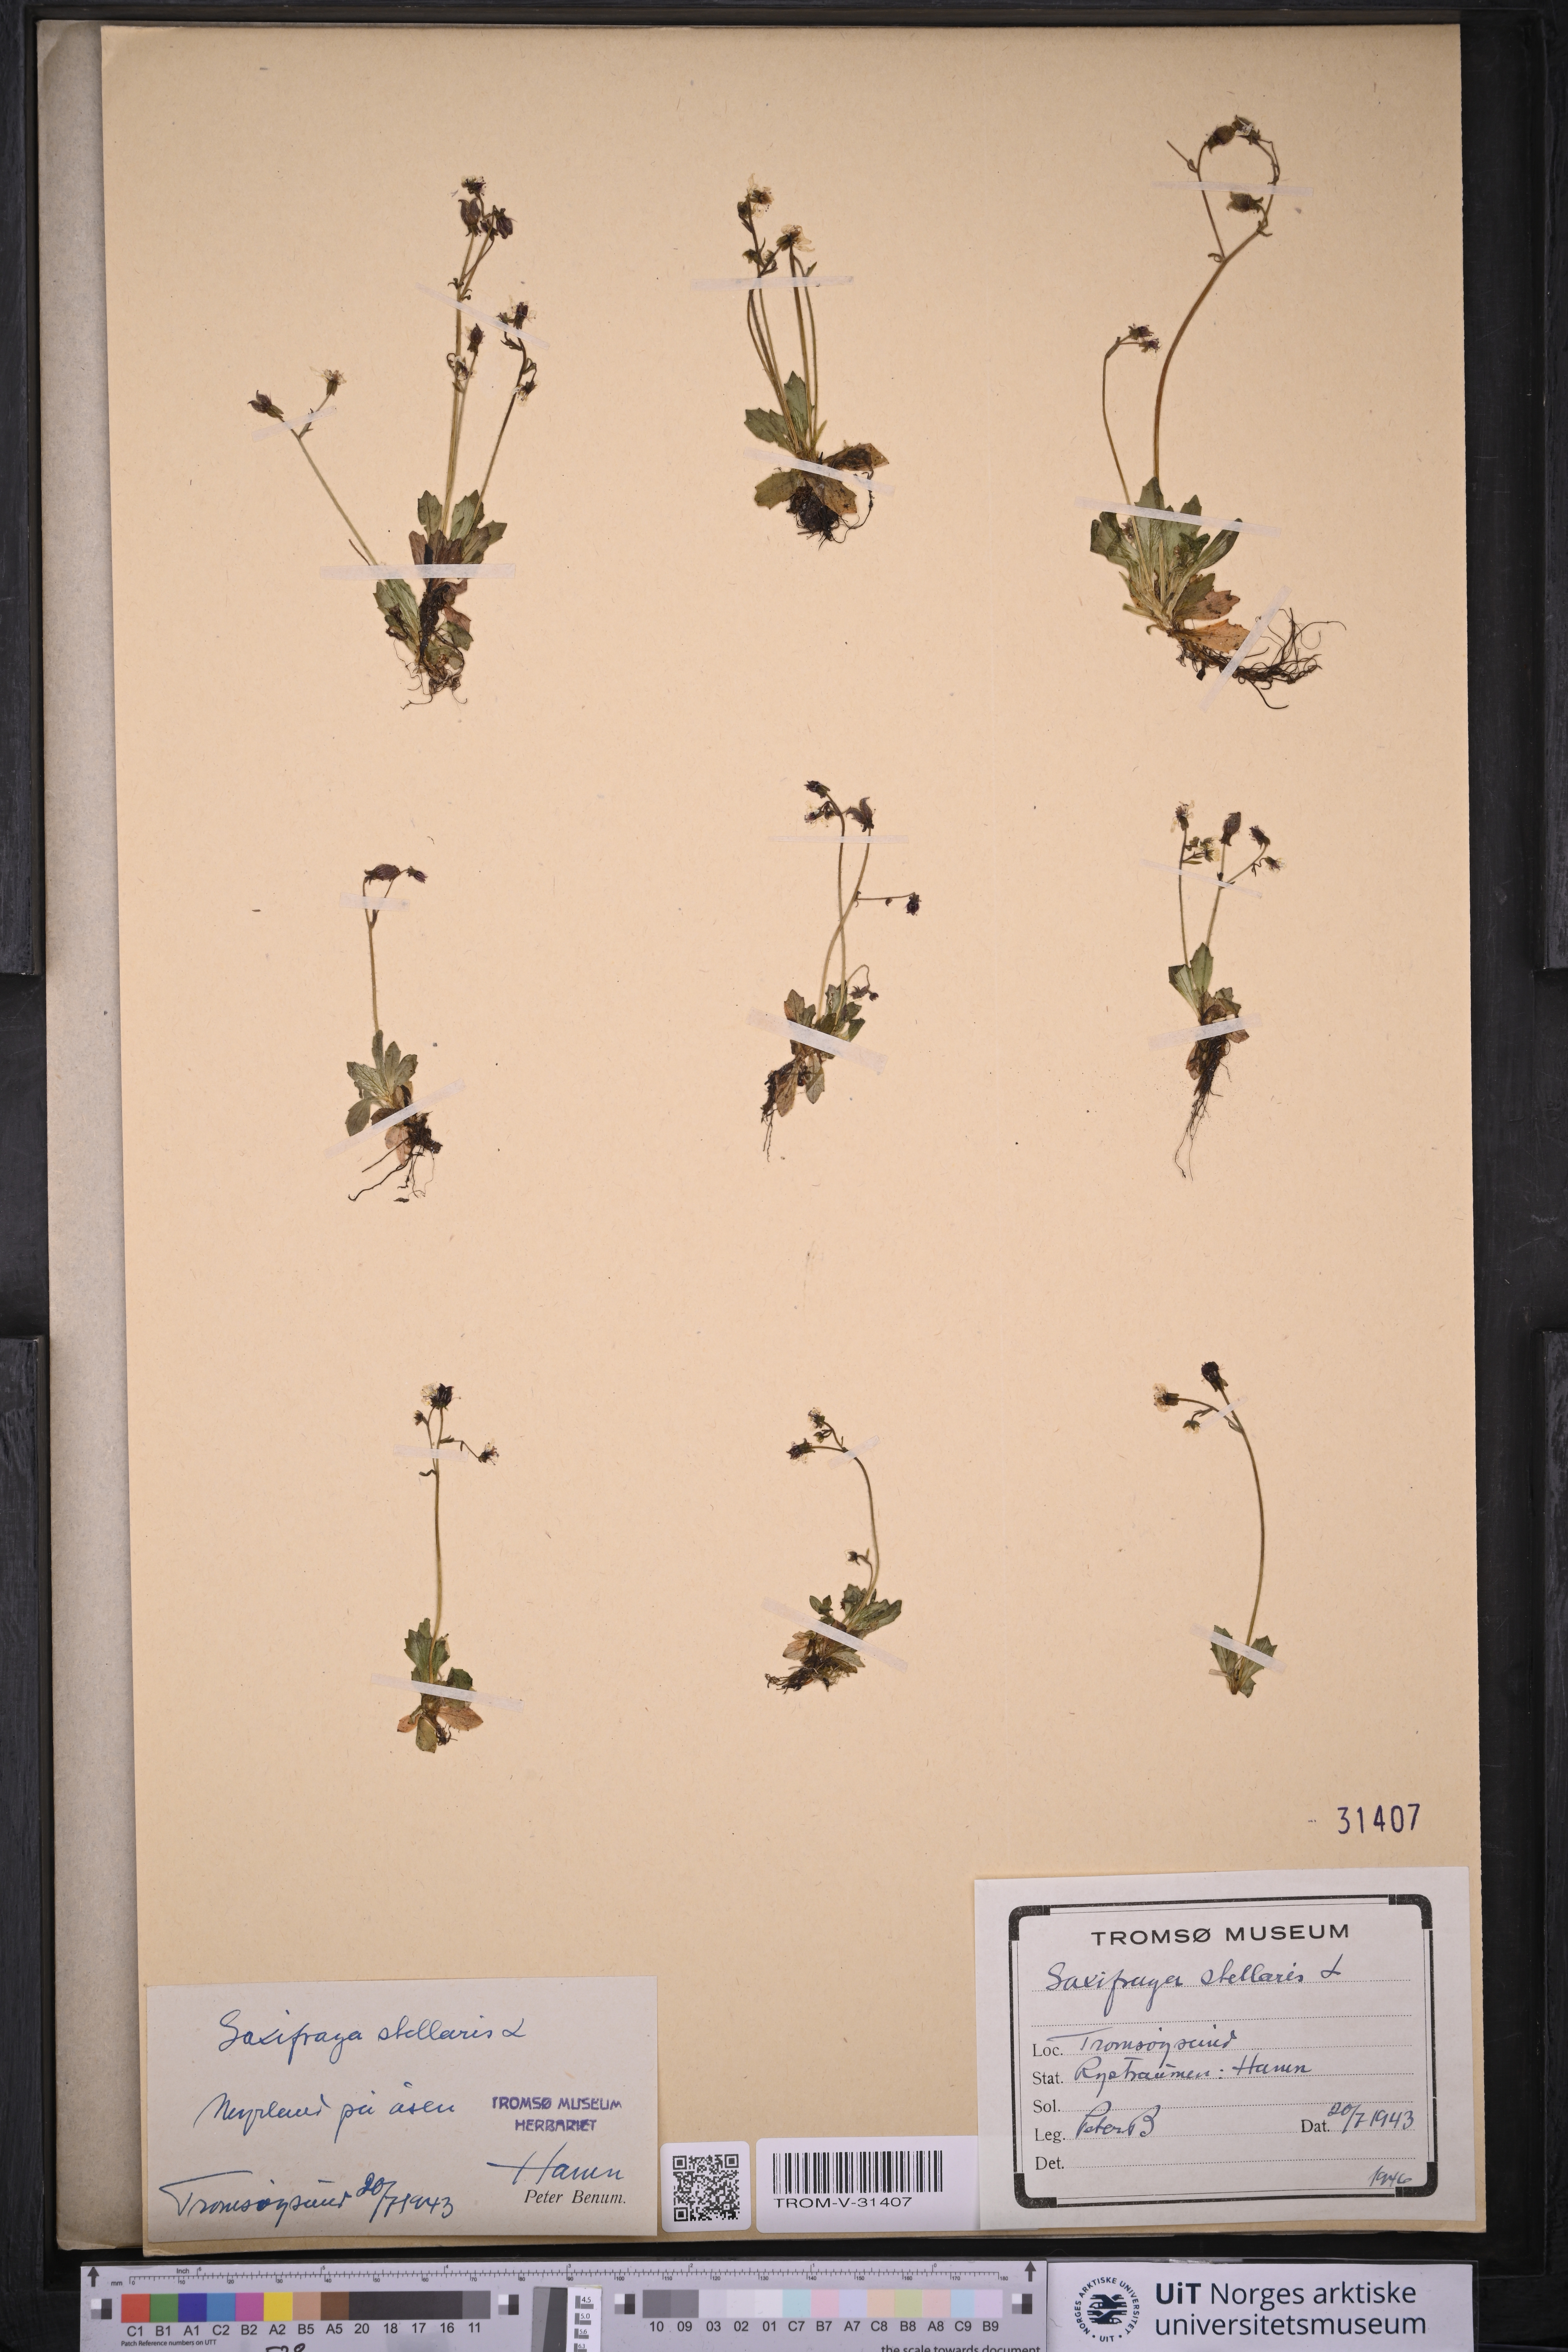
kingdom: Plantae
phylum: Tracheophyta
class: Magnoliopsida
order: Saxifragales
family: Saxifragaceae
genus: Micranthes
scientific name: Micranthes stellaris
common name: Starry saxifrage
